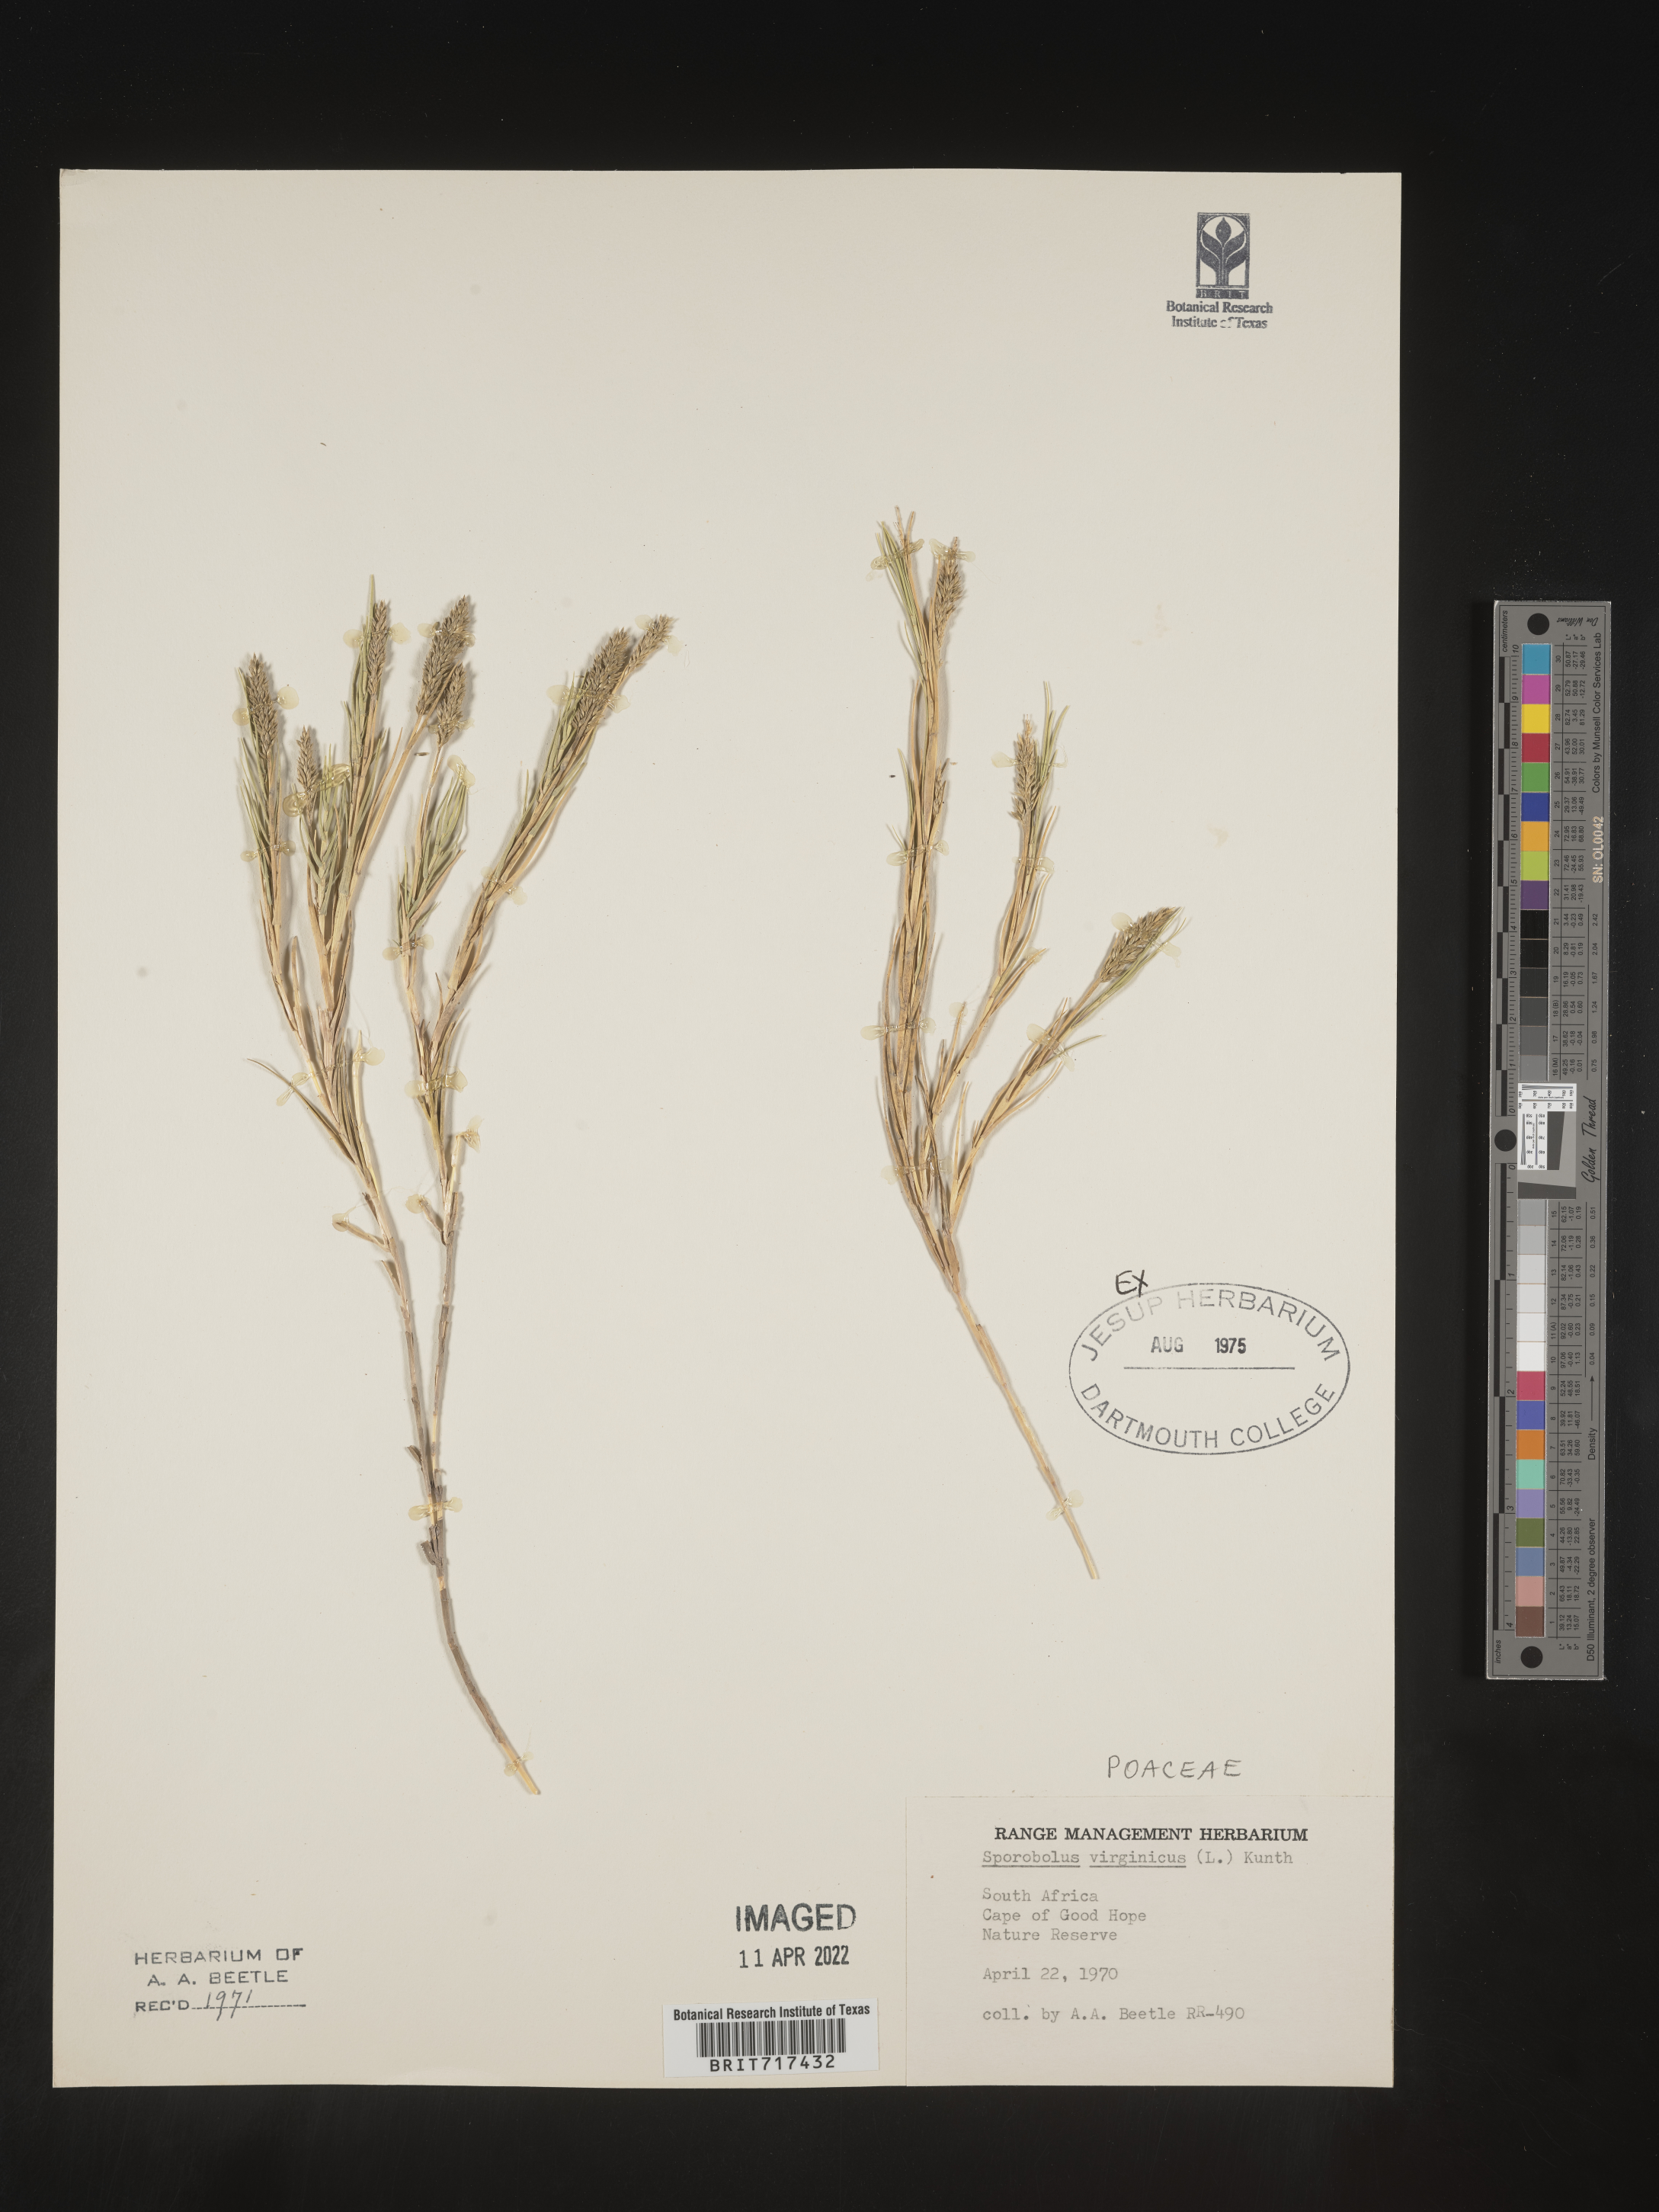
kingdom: Plantae
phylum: Tracheophyta
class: Liliopsida
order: Poales
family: Poaceae
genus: Sporobolus
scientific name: Sporobolus
